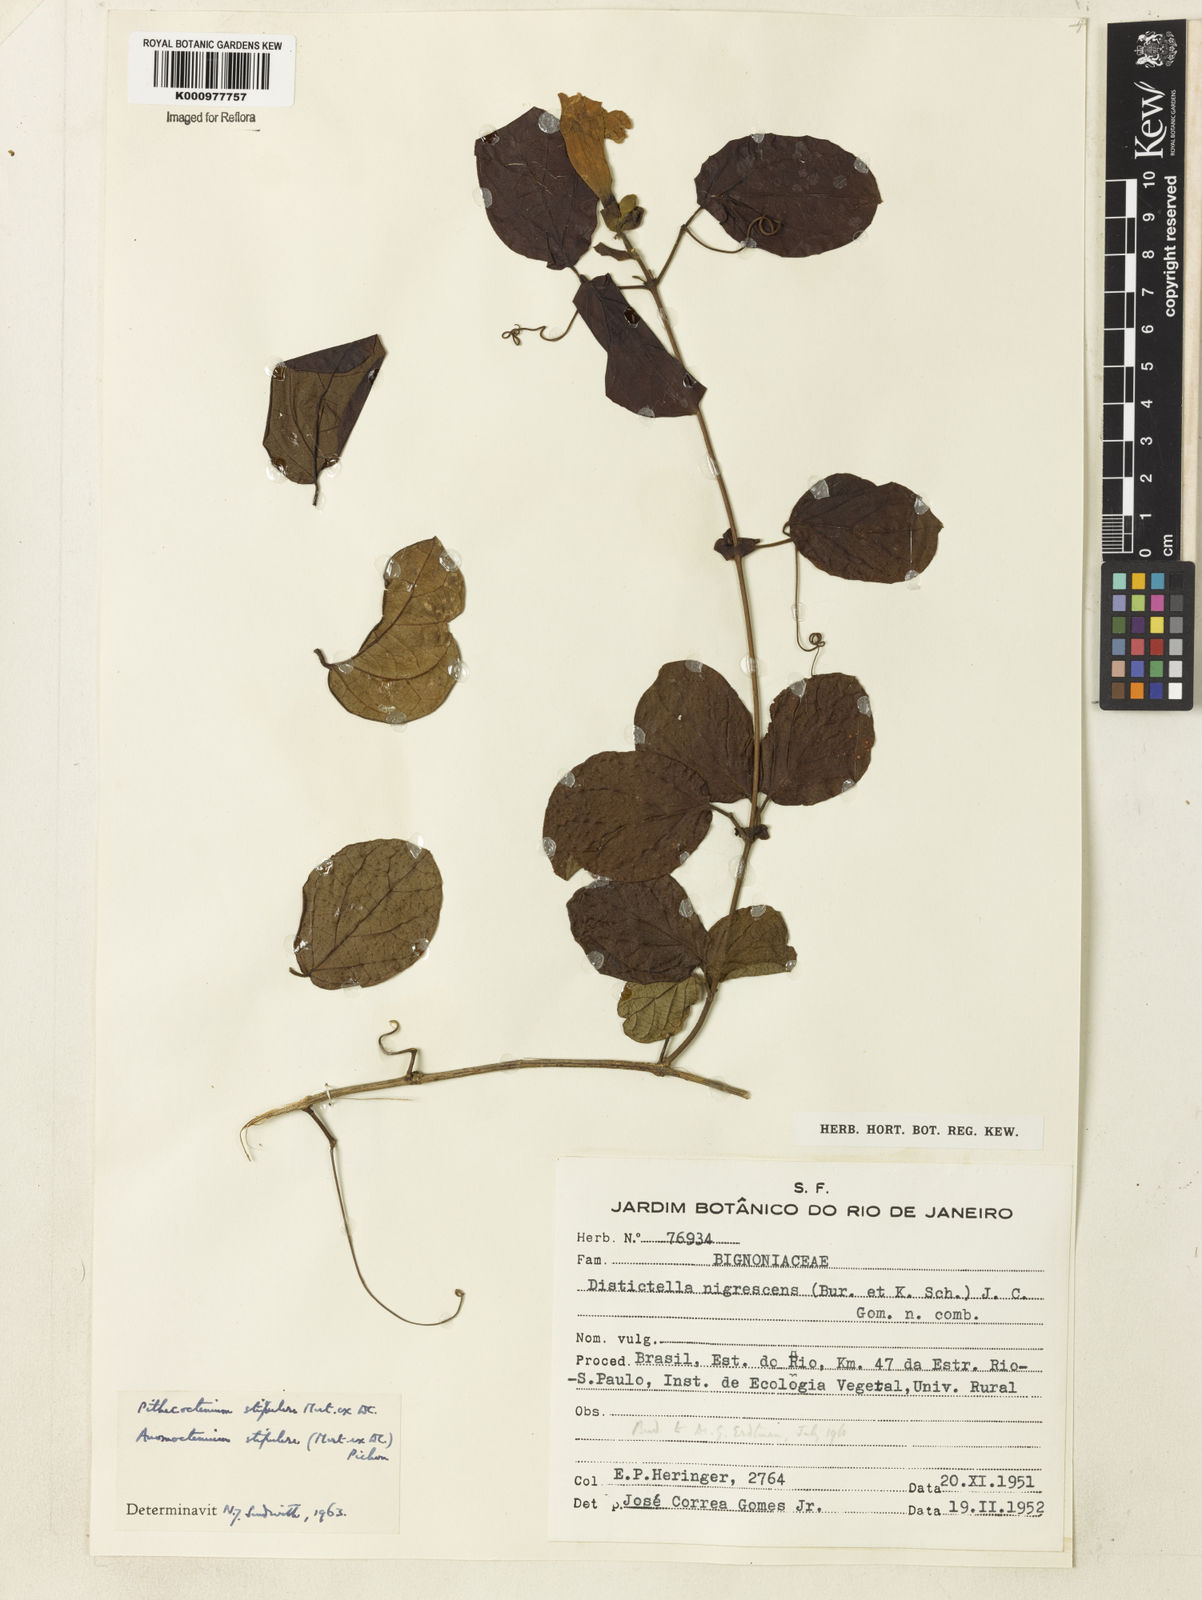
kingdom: Plantae
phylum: Tracheophyta
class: Magnoliopsida
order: Lamiales
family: Bignoniaceae
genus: Pithecoctenium
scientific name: Pithecoctenium
